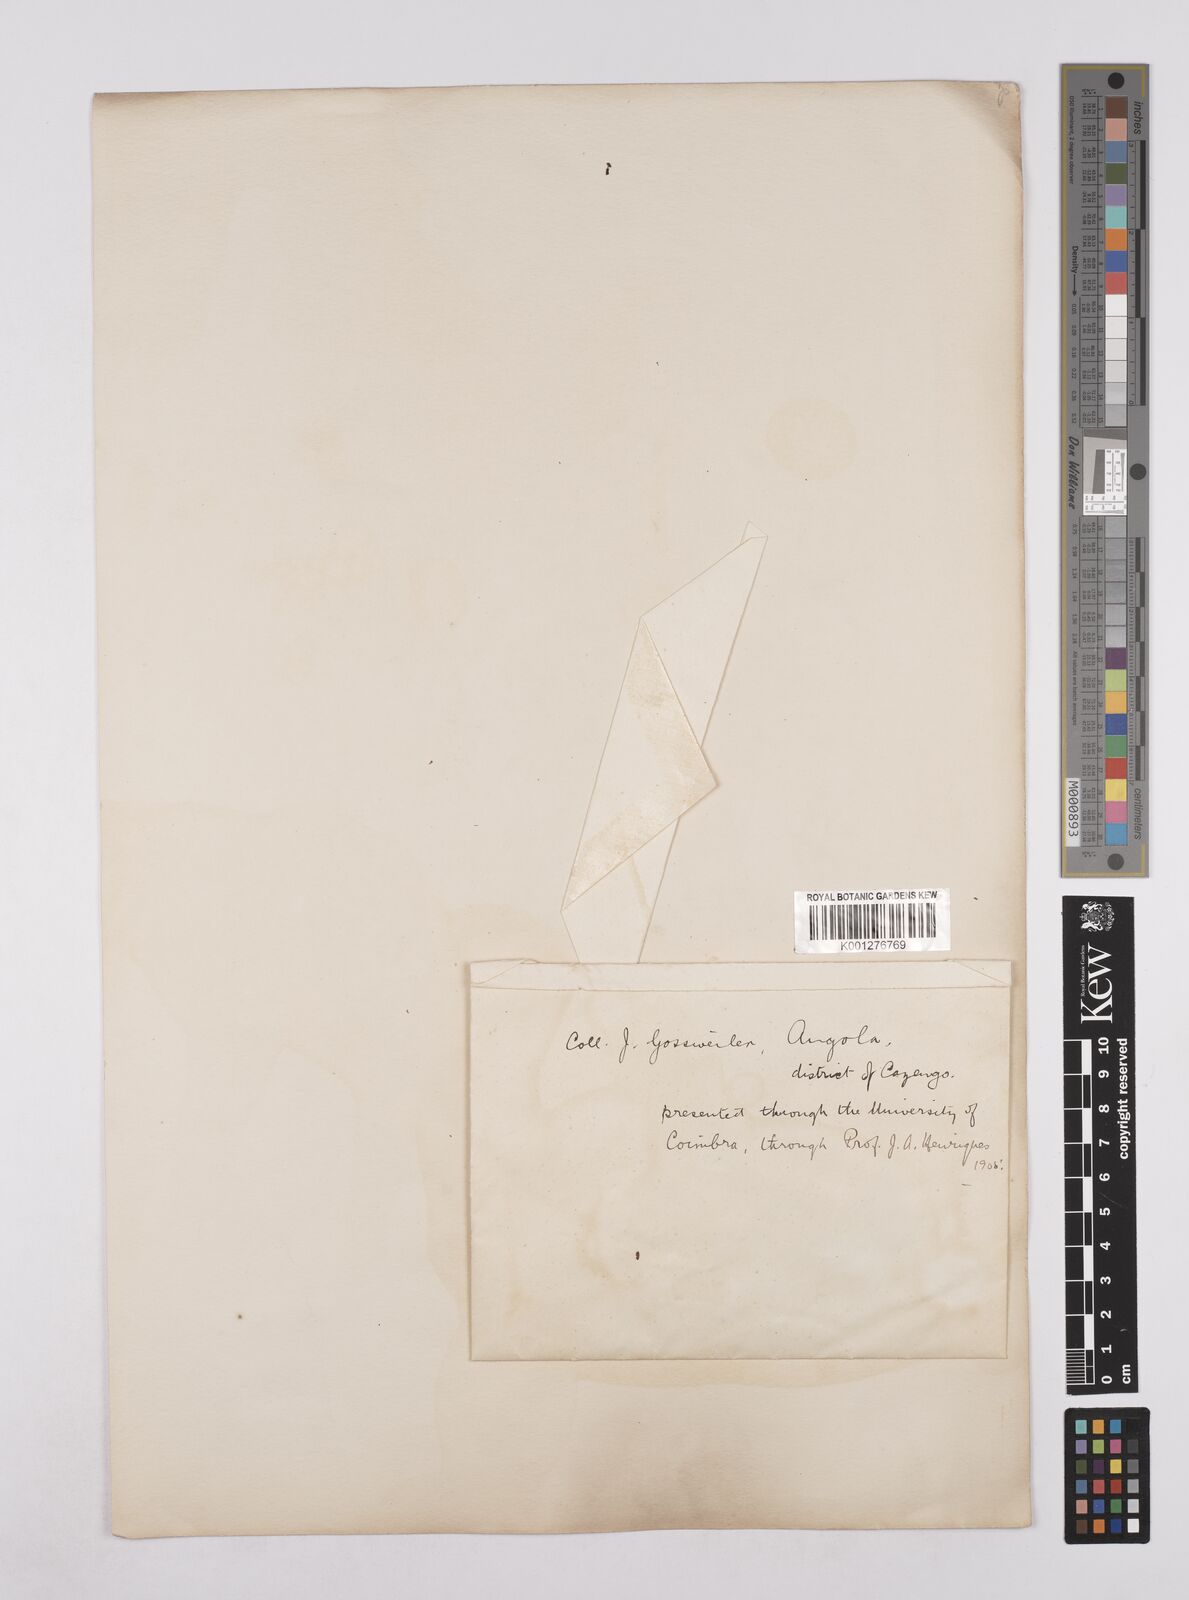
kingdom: Plantae
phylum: Tracheophyta
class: Magnoliopsida
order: Fabales
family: Fabaceae
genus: Albizia
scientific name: Albizia
